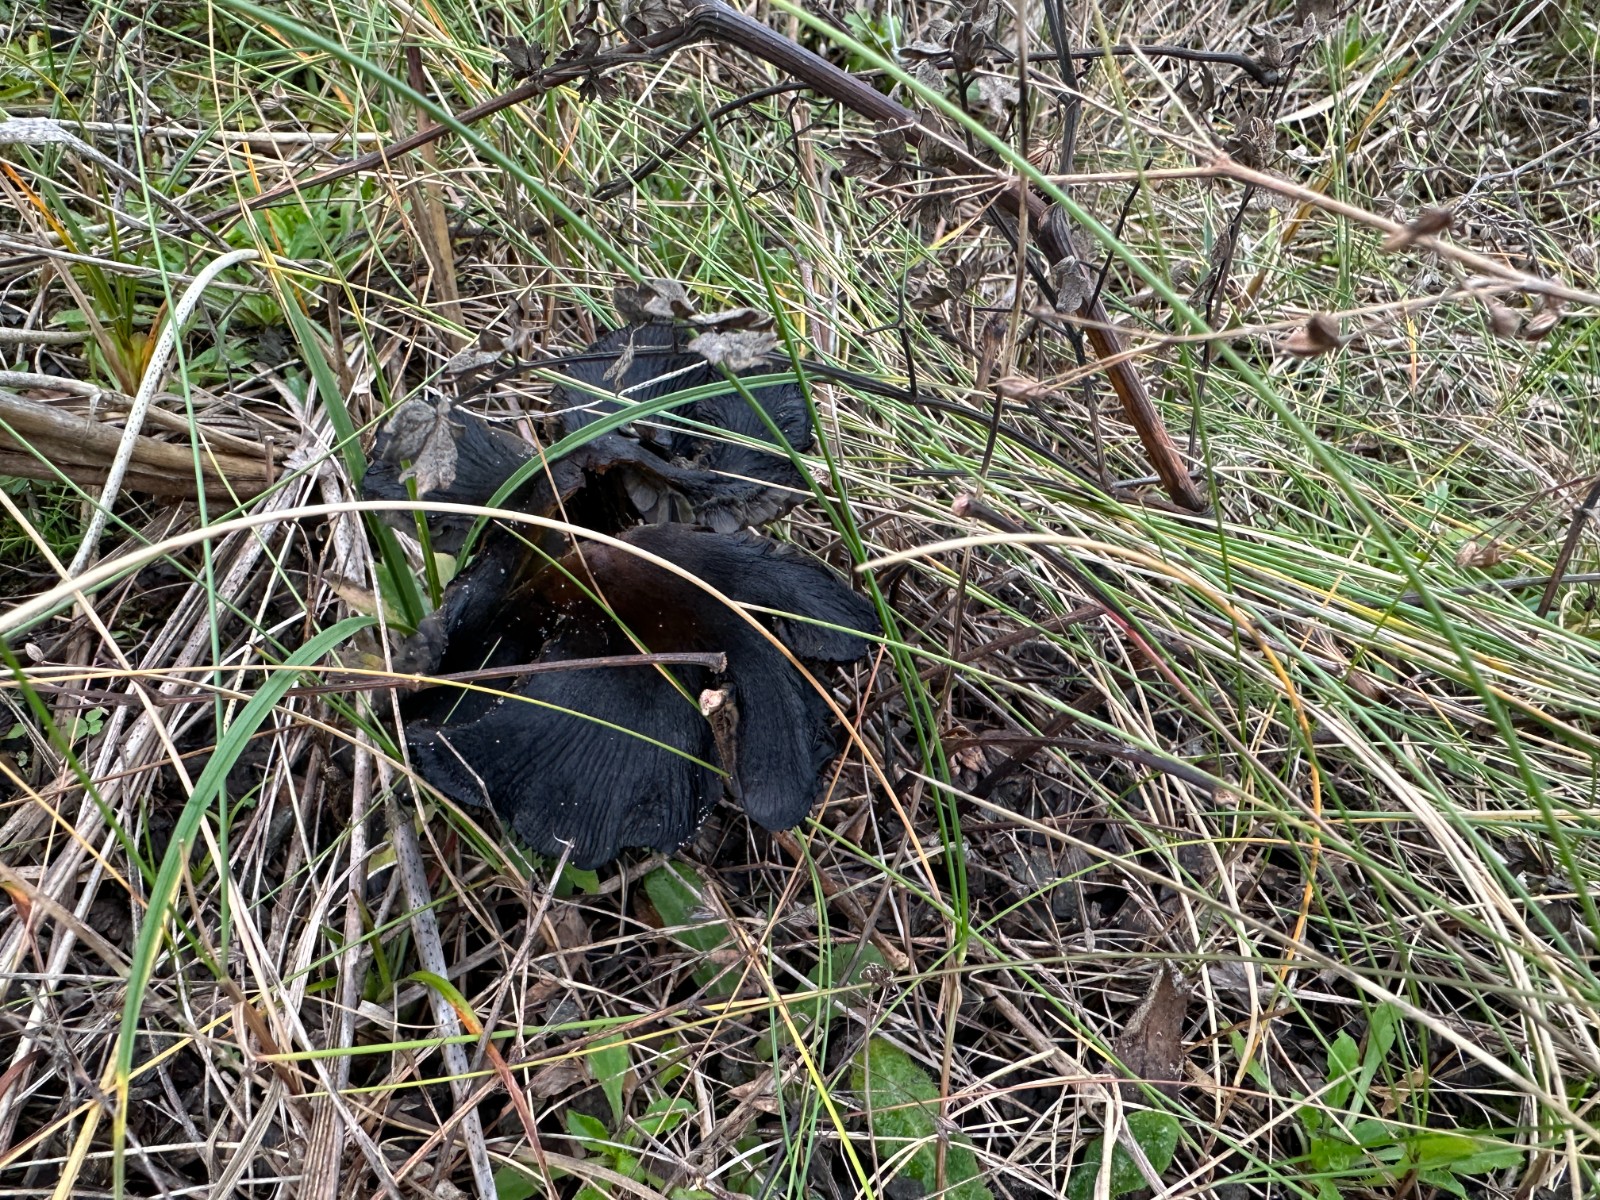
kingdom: Fungi
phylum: Basidiomycota
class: Agaricomycetes
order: Agaricales
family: Hygrophoraceae
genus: Hygrocybe
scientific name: Hygrocybe conica
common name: kegle-vokshat
